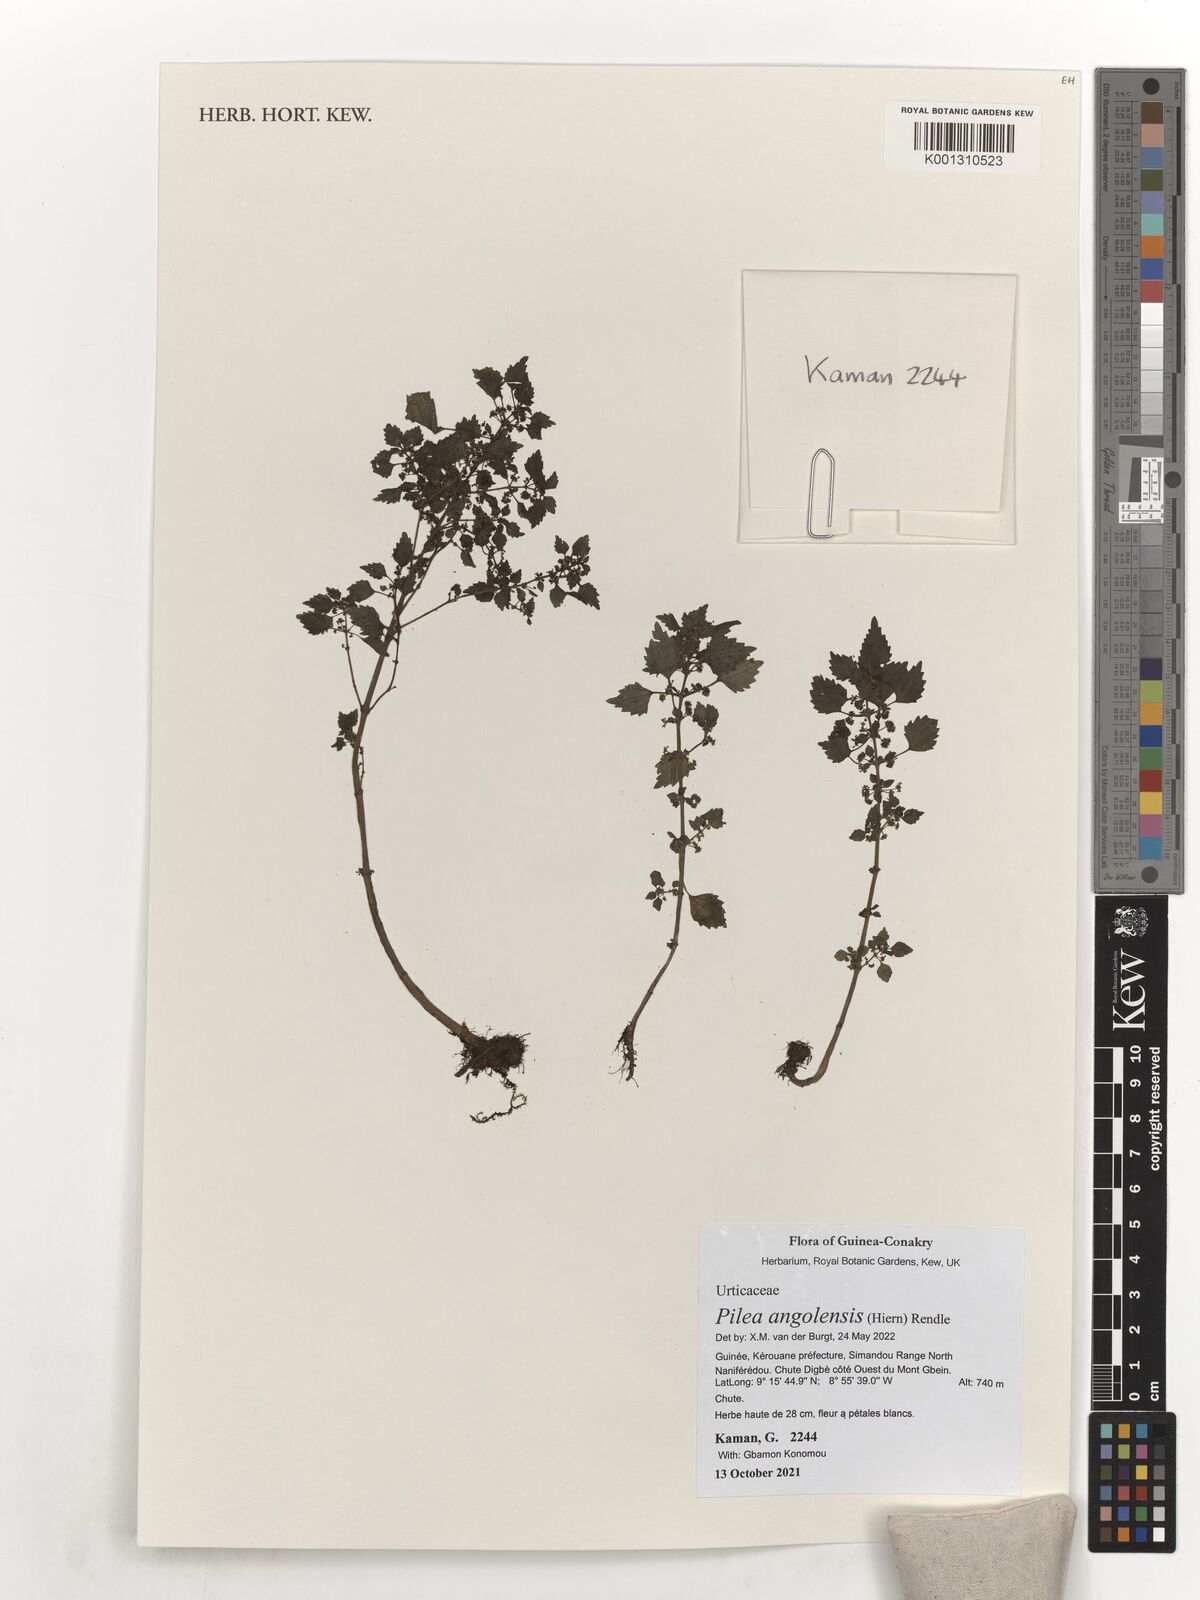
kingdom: Plantae
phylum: Tracheophyta
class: Magnoliopsida
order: Rosales
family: Urticaceae
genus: Pilea
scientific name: Pilea angolensis
